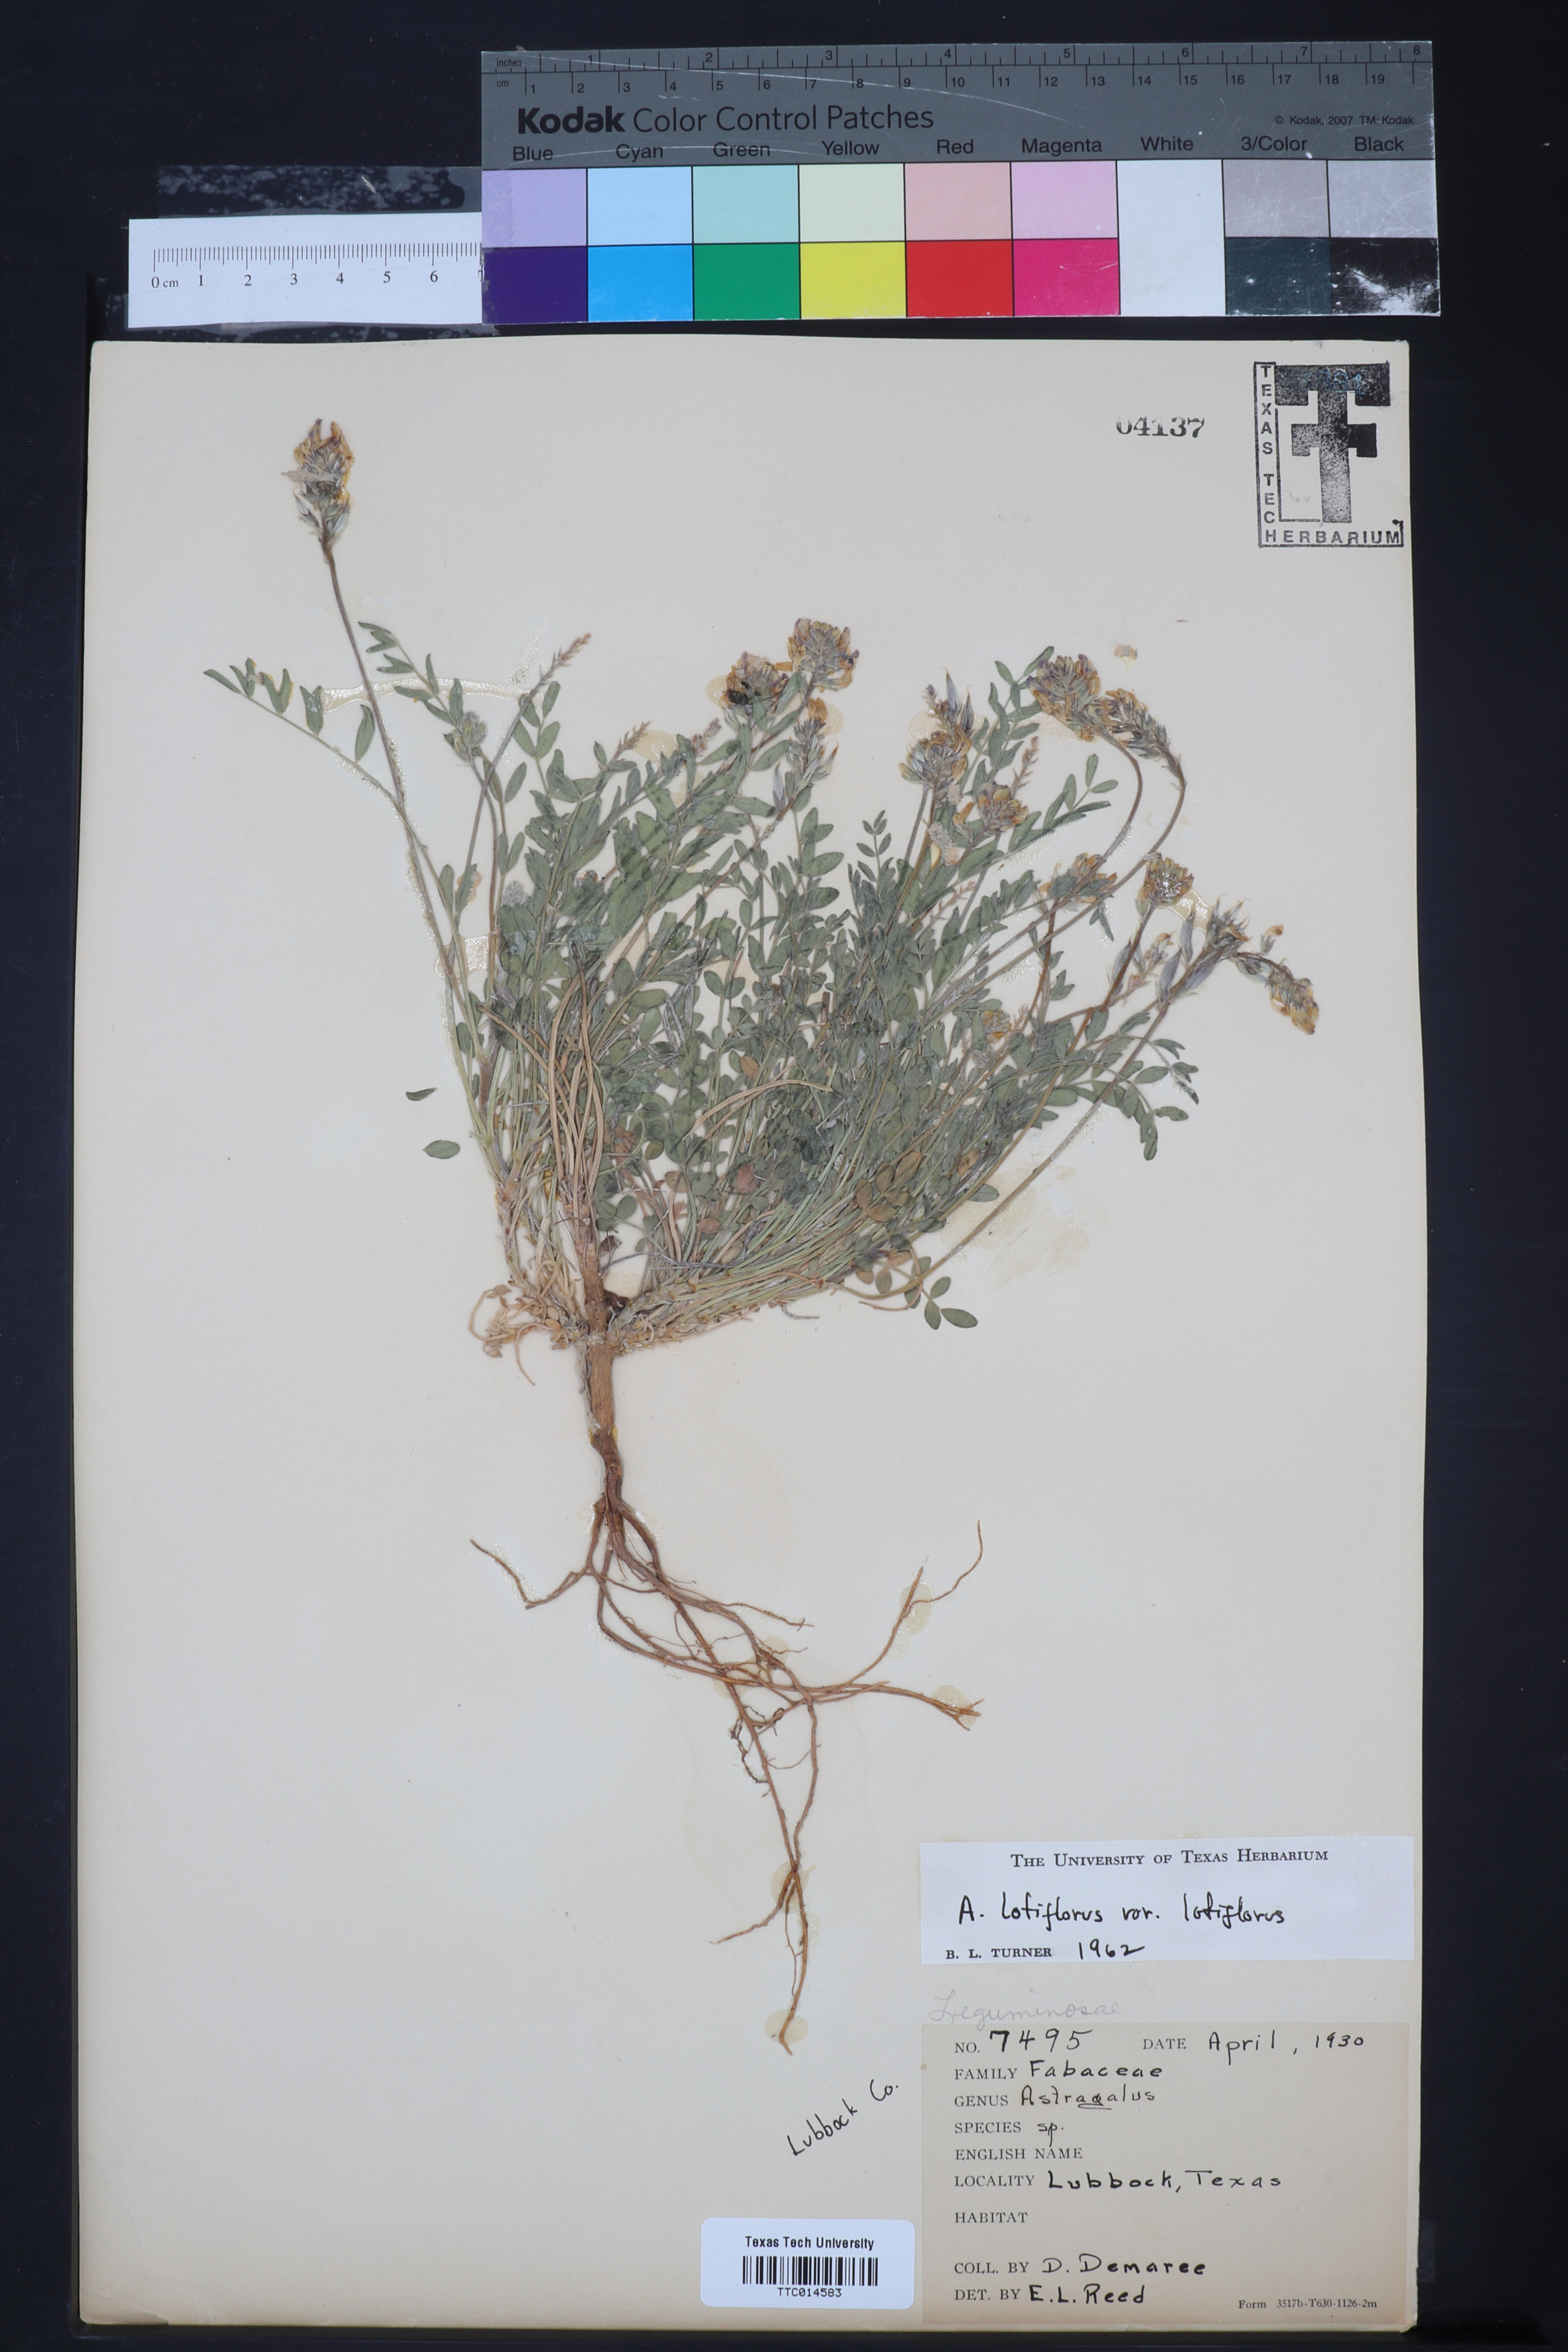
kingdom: Plantae
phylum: Tracheophyta
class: Magnoliopsida
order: Fabales
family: Fabaceae
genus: Astragalus
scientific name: Astragalus lotiflorus
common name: Lotus milk-vetch
